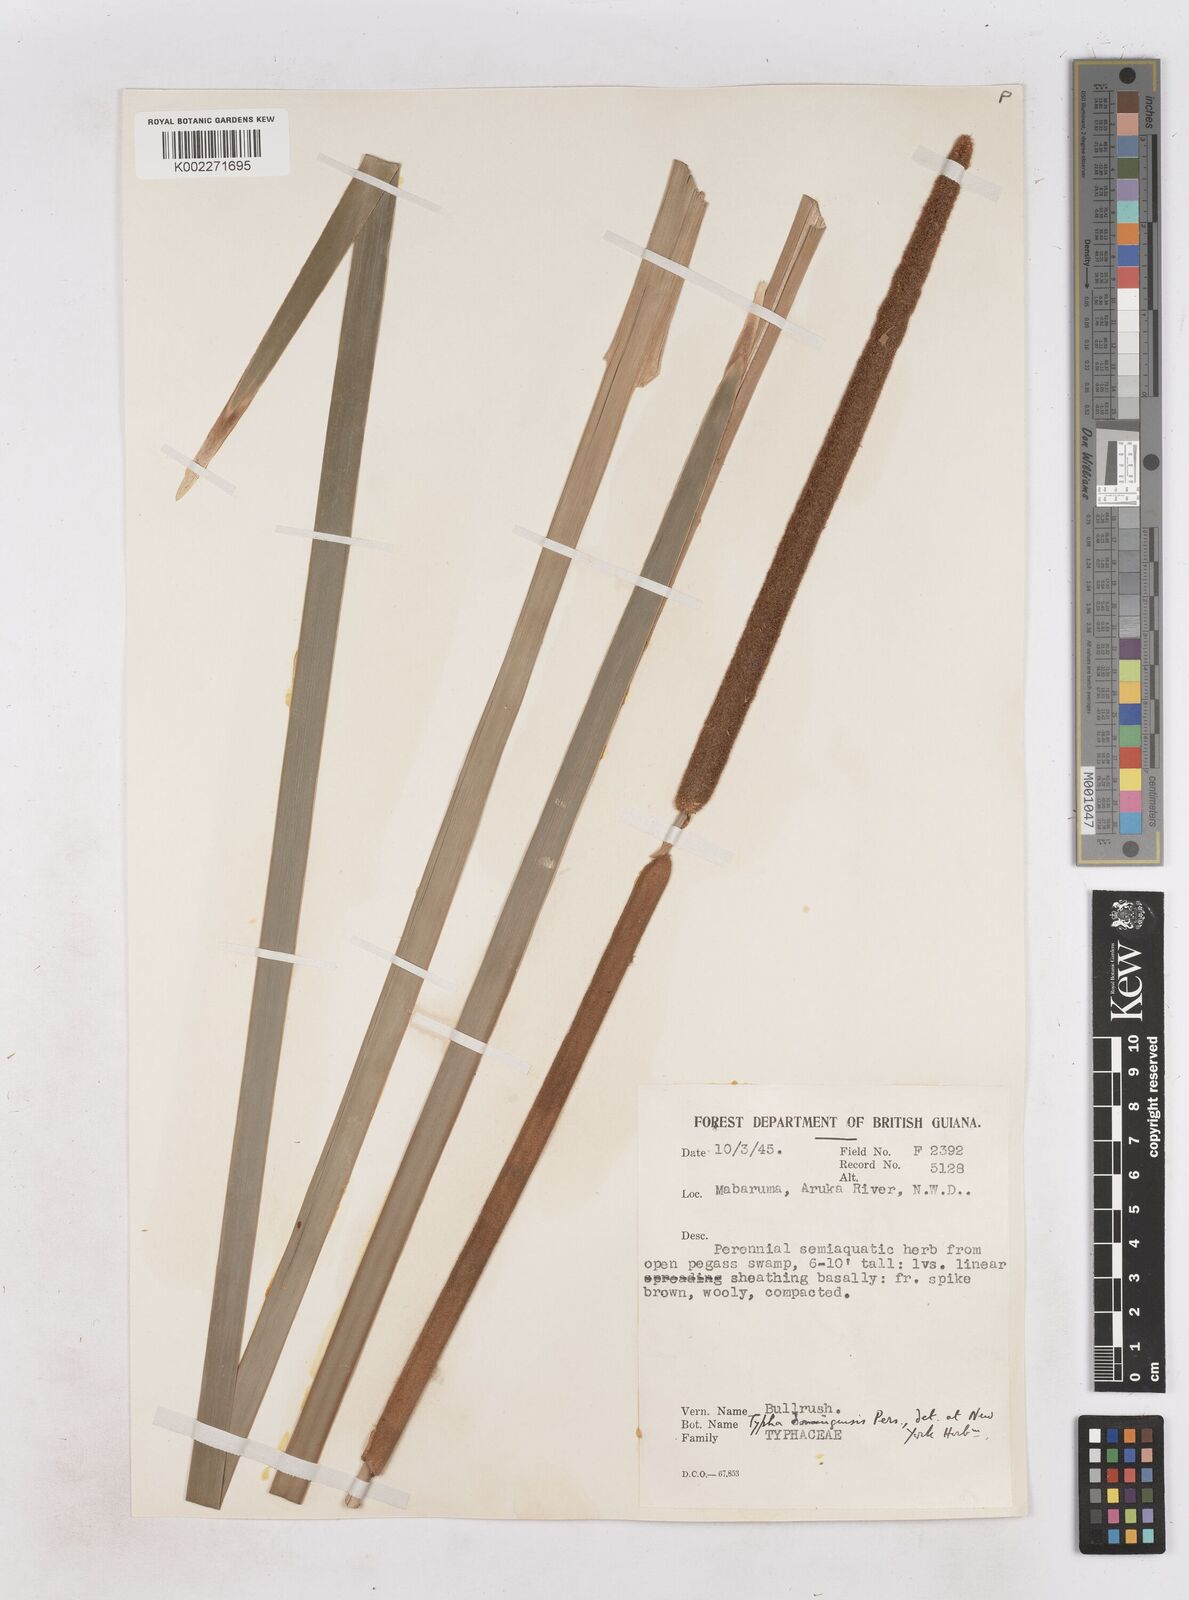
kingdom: Plantae
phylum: Tracheophyta
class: Liliopsida
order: Poales
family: Typhaceae
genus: Typha
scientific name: Typha domingensis
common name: Southern cattail
